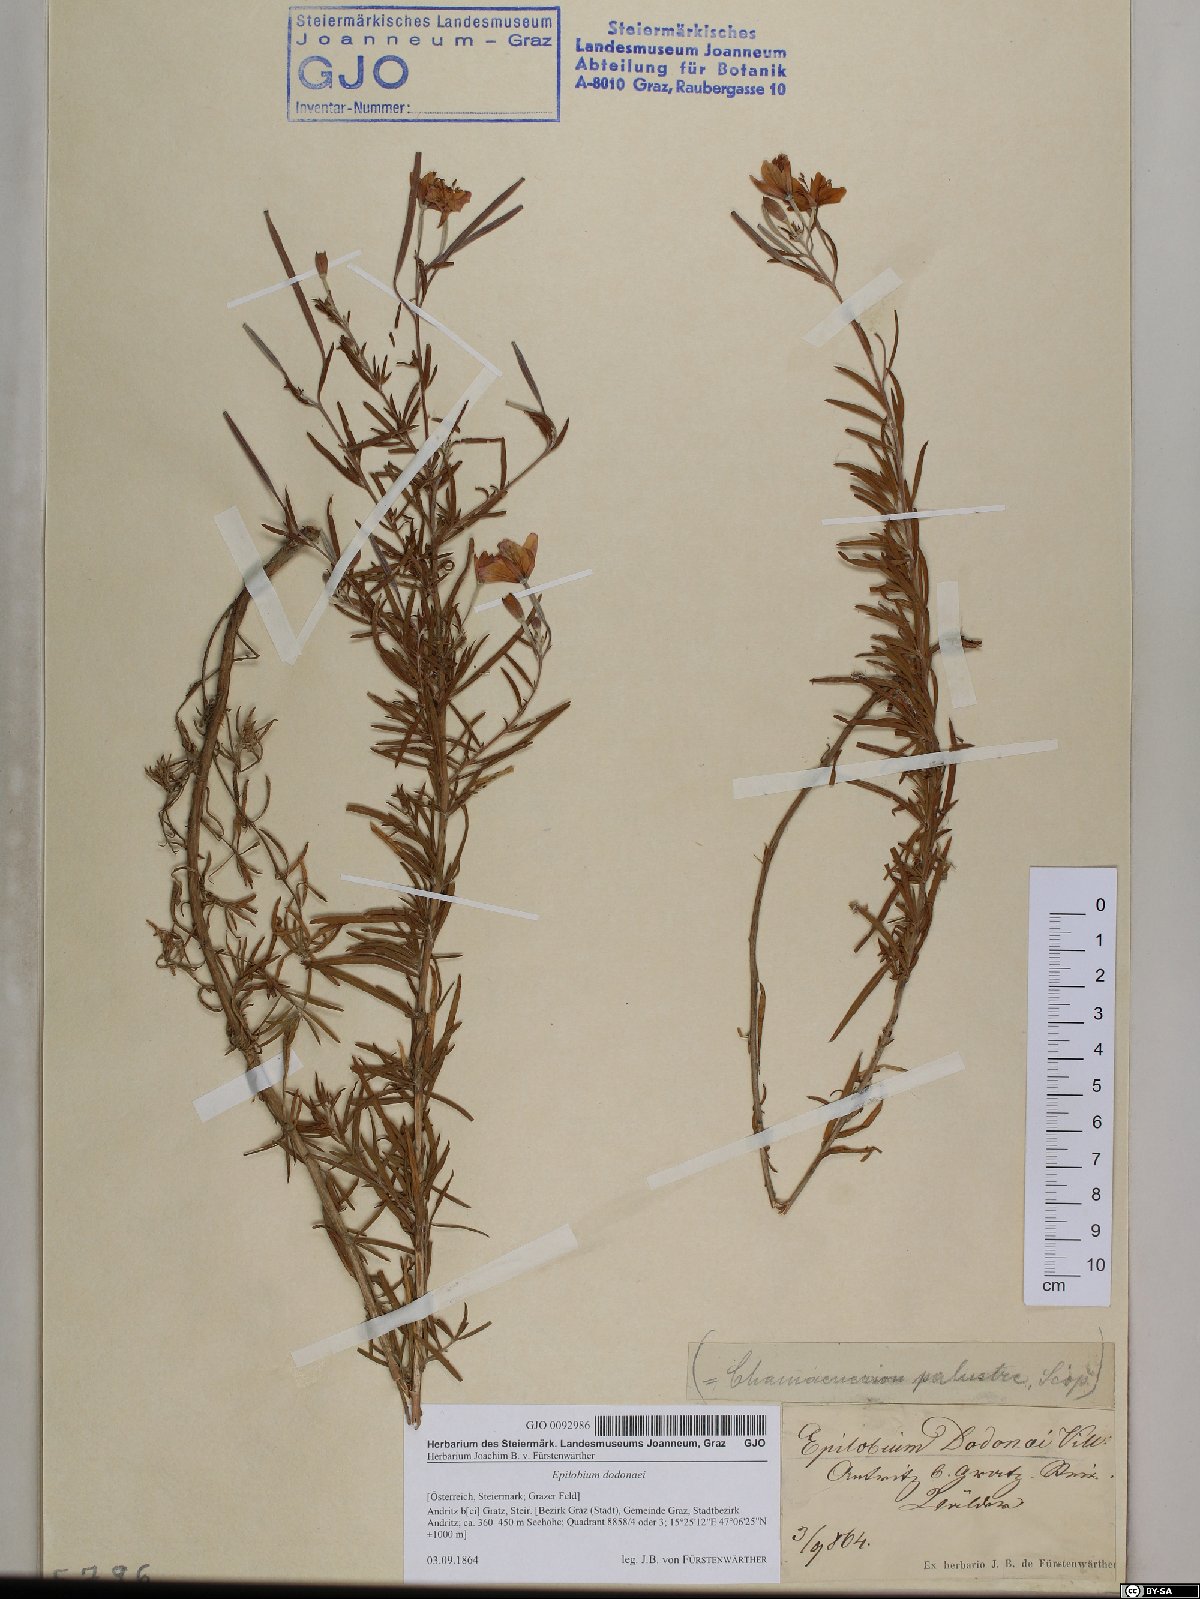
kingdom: Plantae
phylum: Tracheophyta
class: Magnoliopsida
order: Myrtales
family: Onagraceae
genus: Chamaenerion
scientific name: Chamaenerion dodonaei
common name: Rosemary-leaved willowherb
